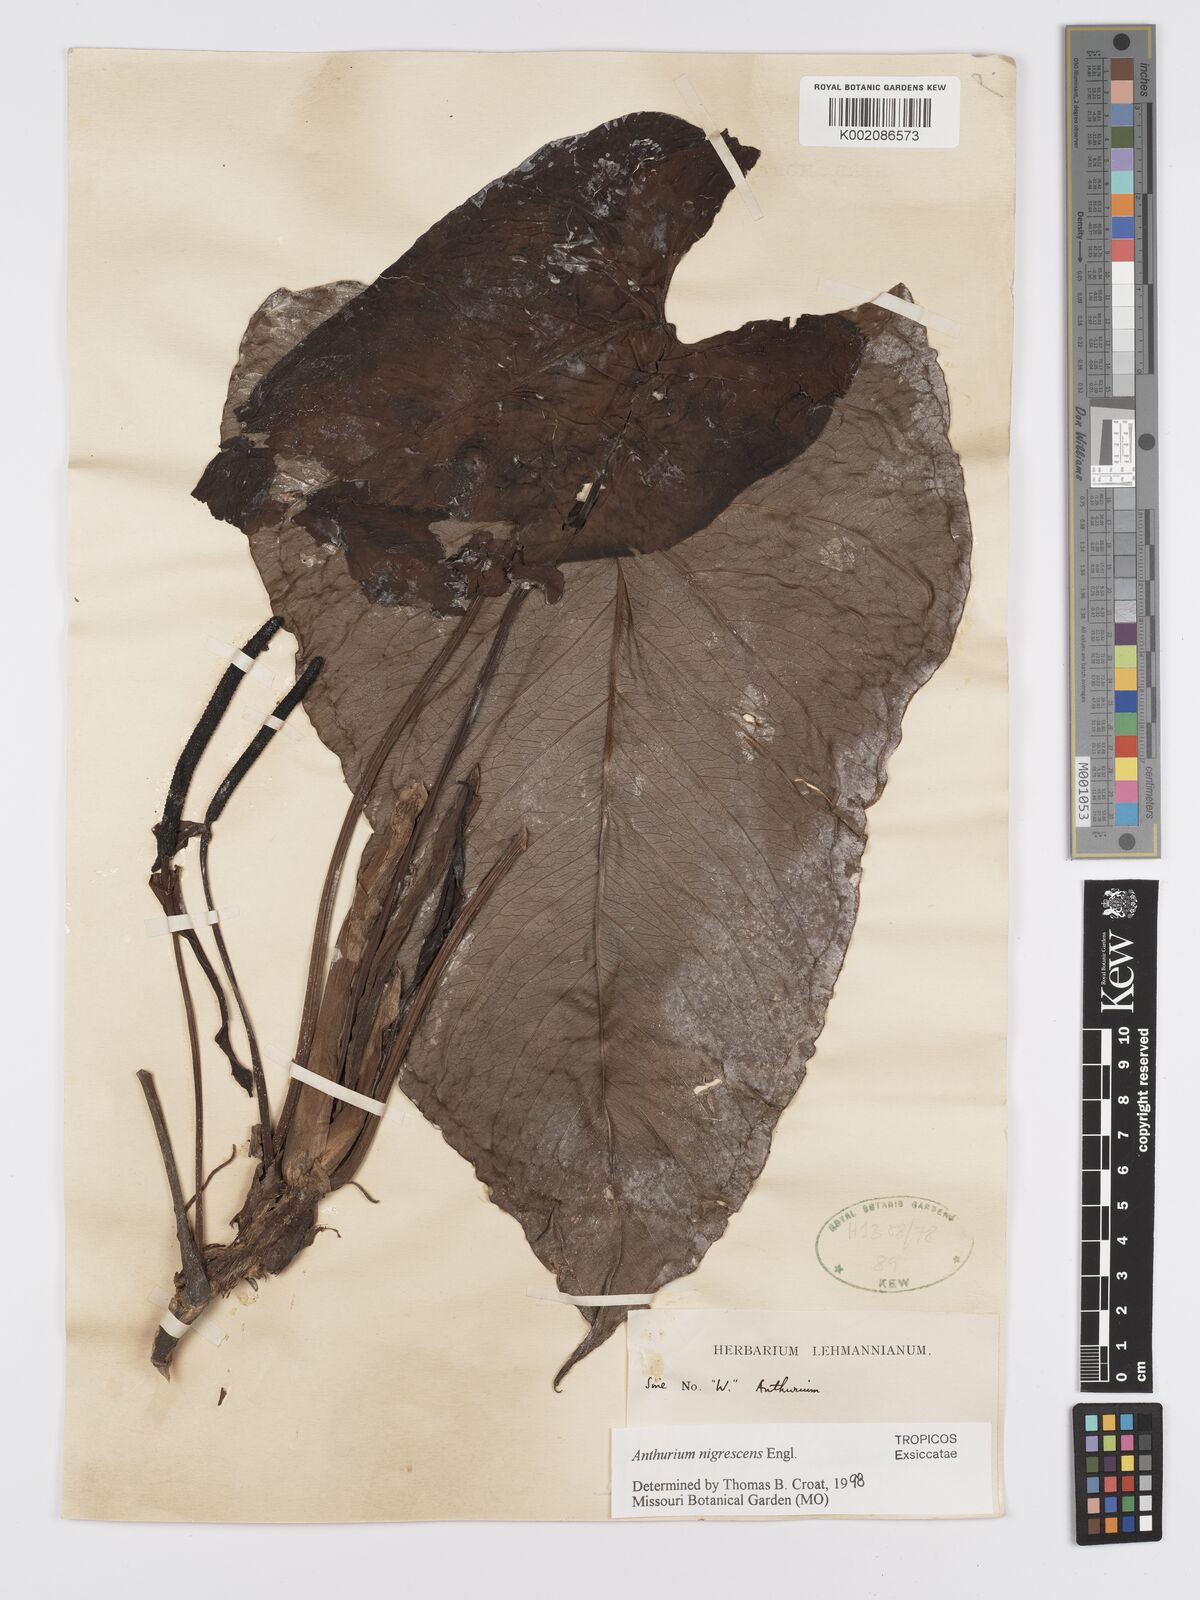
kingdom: Plantae
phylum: Tracheophyta
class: Liliopsida
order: Alismatales
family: Araceae
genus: Anthurium
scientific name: Anthurium nigrescens
